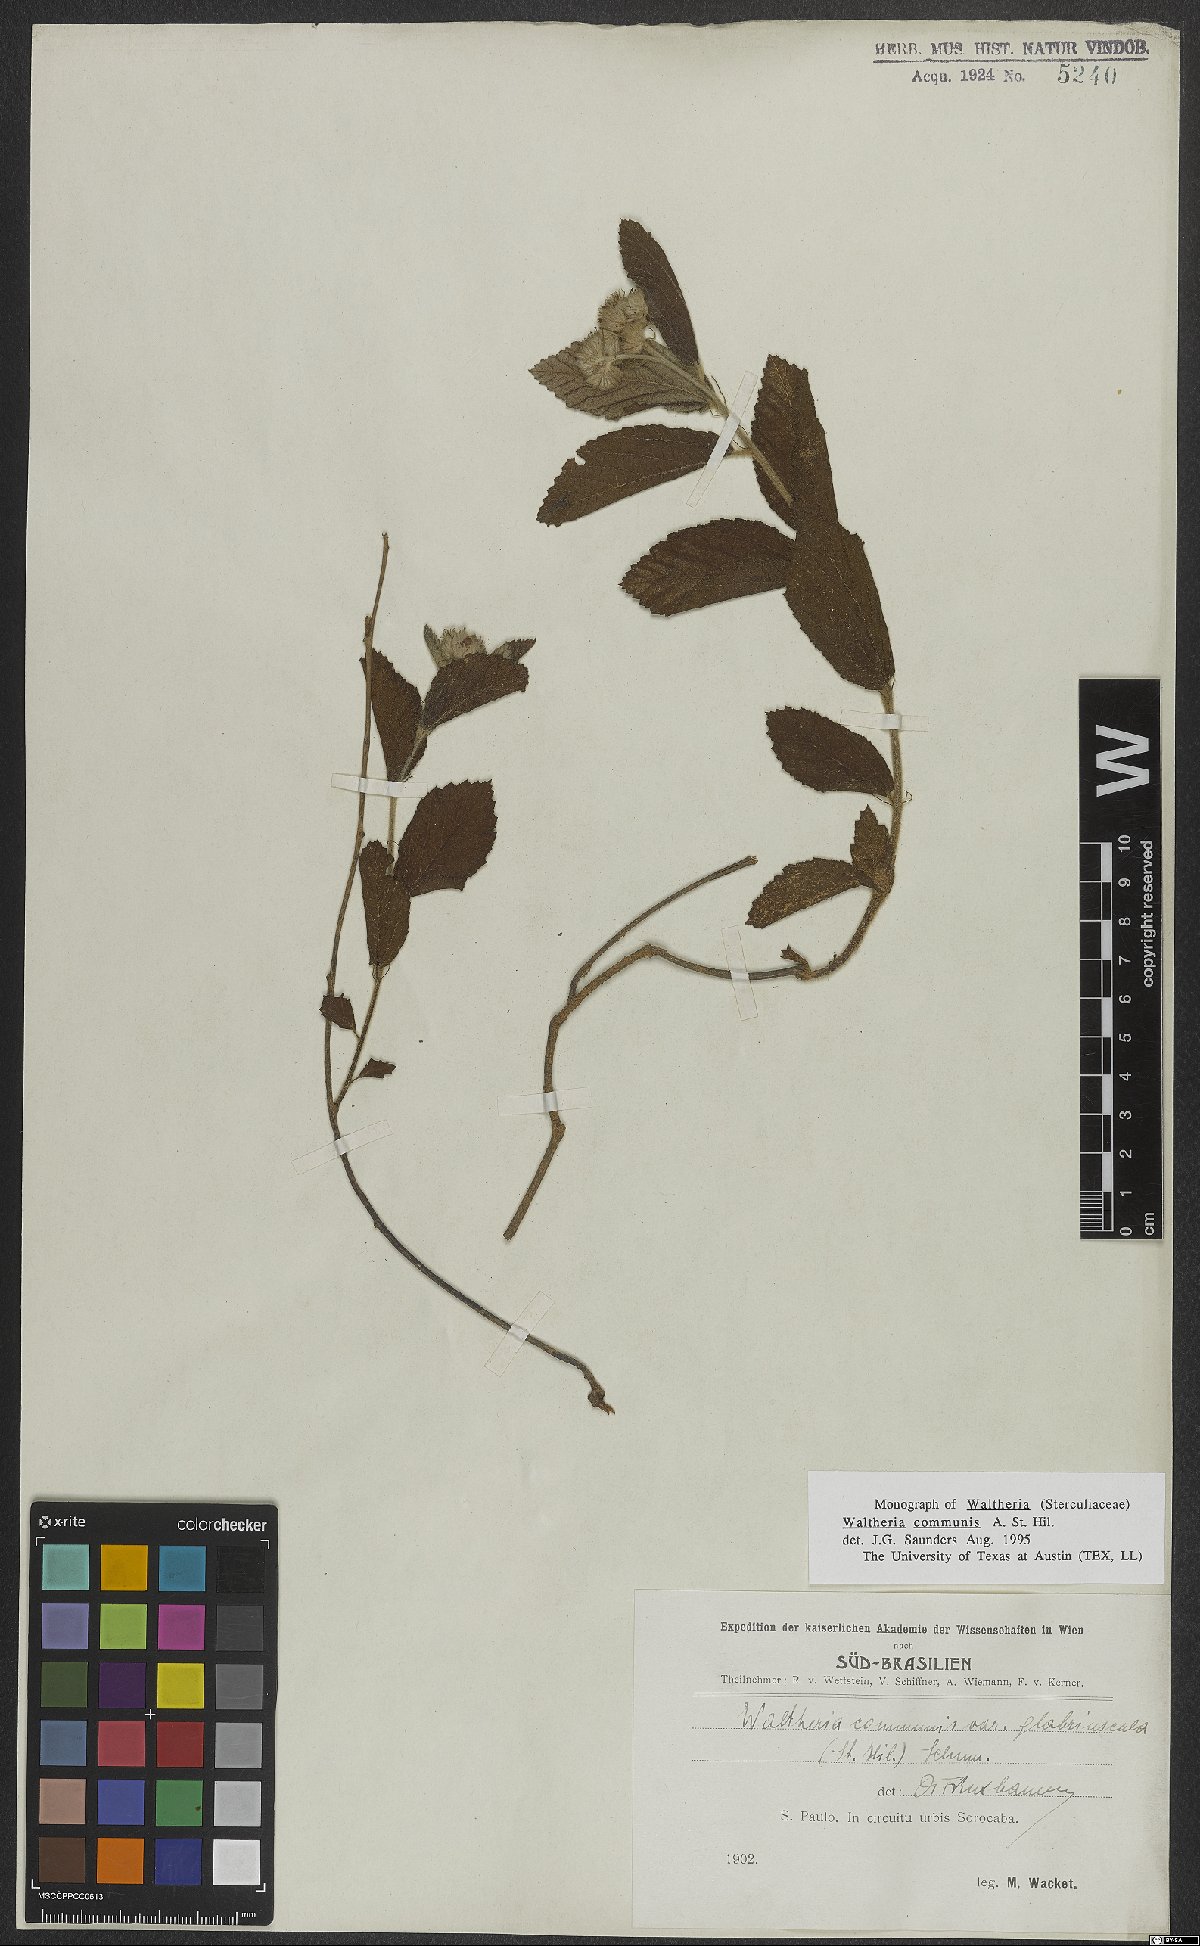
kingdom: Plantae
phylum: Tracheophyta
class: Magnoliopsida
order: Malvales
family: Malvaceae
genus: Waltheria
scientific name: Waltheria communis
